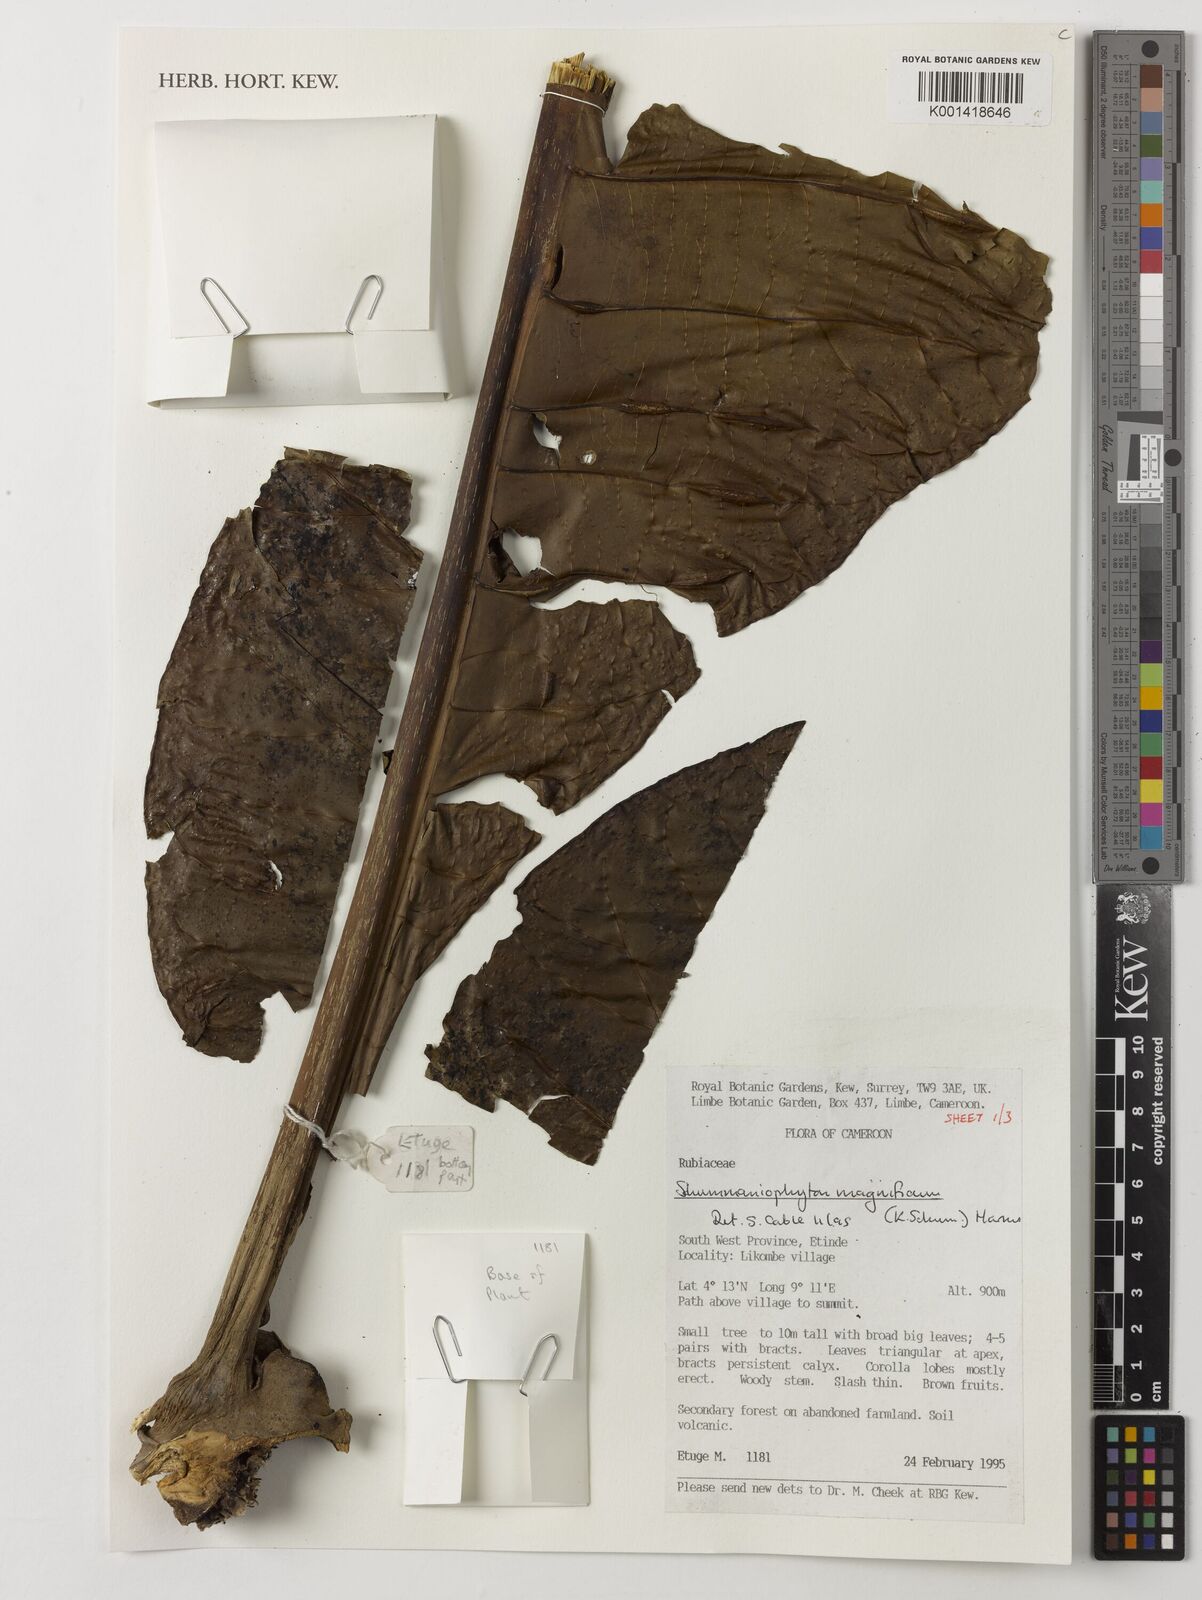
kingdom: Plantae
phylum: Tracheophyta
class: Magnoliopsida
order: Gentianales
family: Rubiaceae
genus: Schumanniophyton
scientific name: Schumanniophyton magnificum
